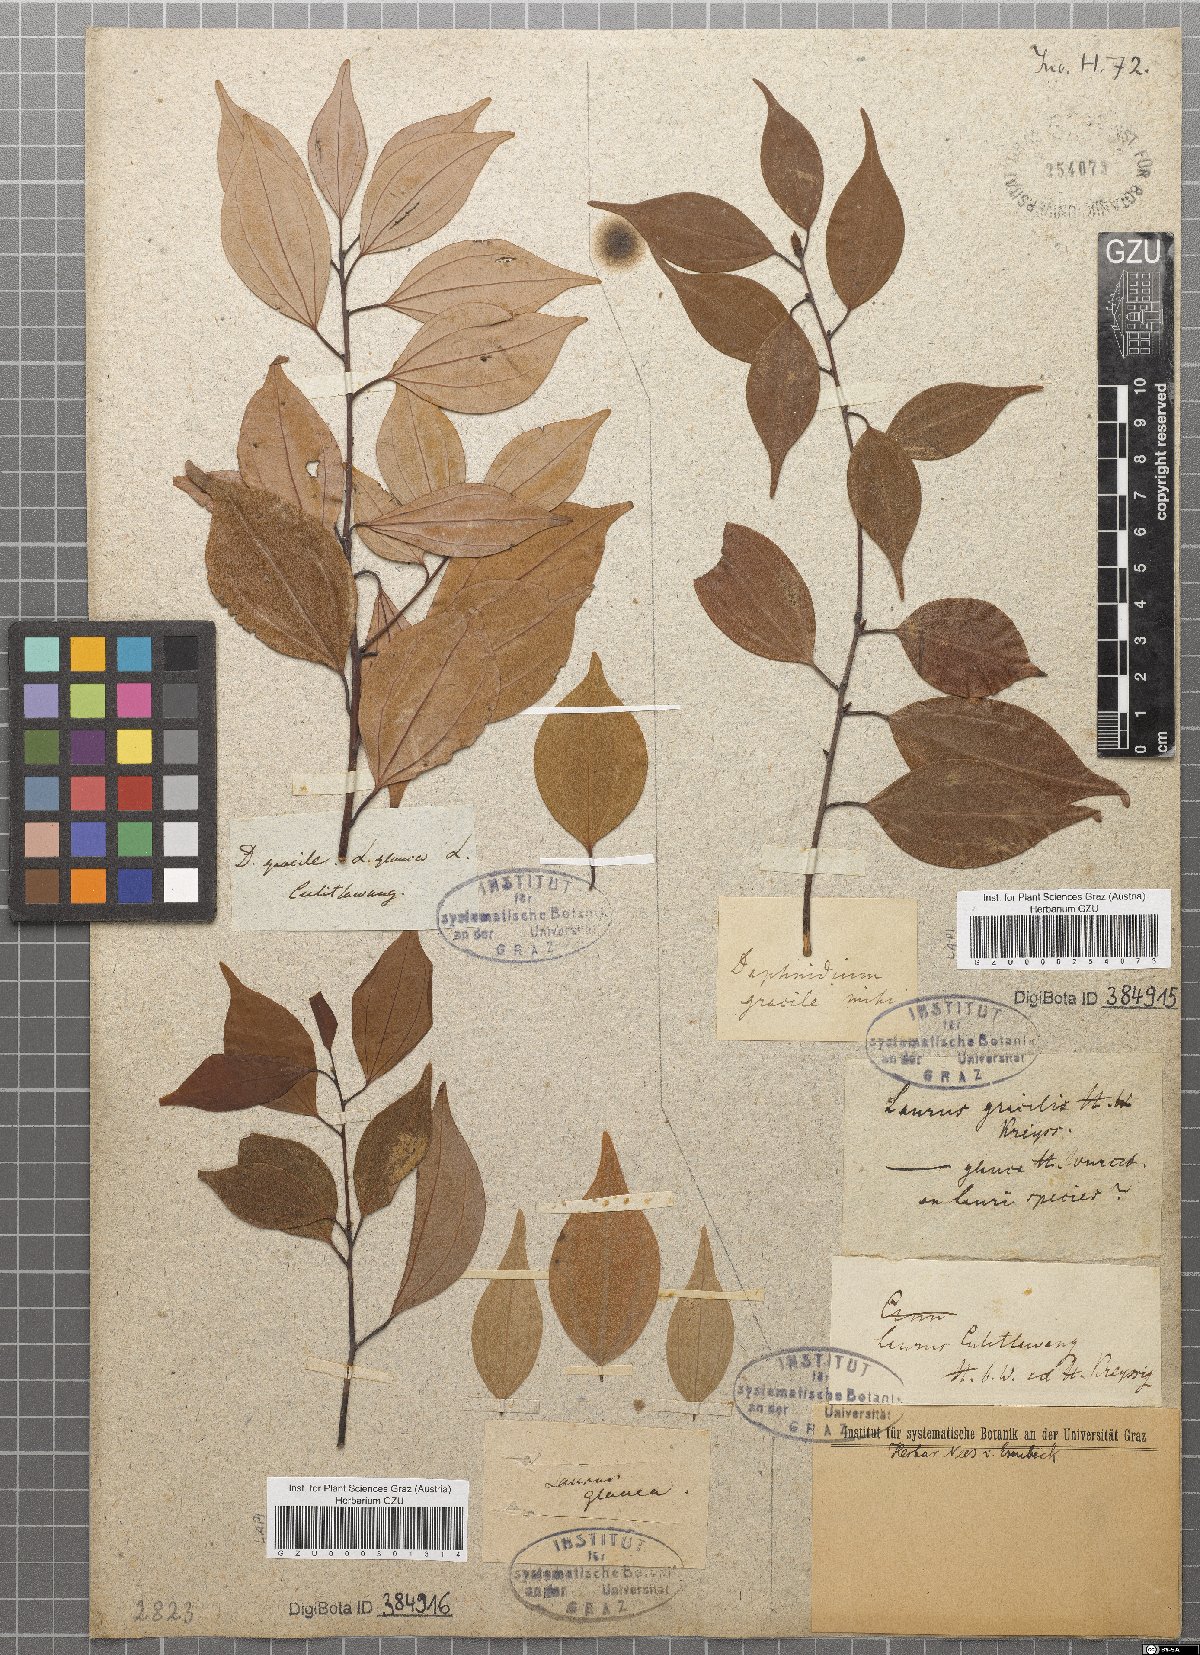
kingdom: Plantae
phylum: Tracheophyta
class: Magnoliopsida
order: Laurales
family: Lauraceae
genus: Cinnamomum
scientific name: Cinnamomum culitlawan
